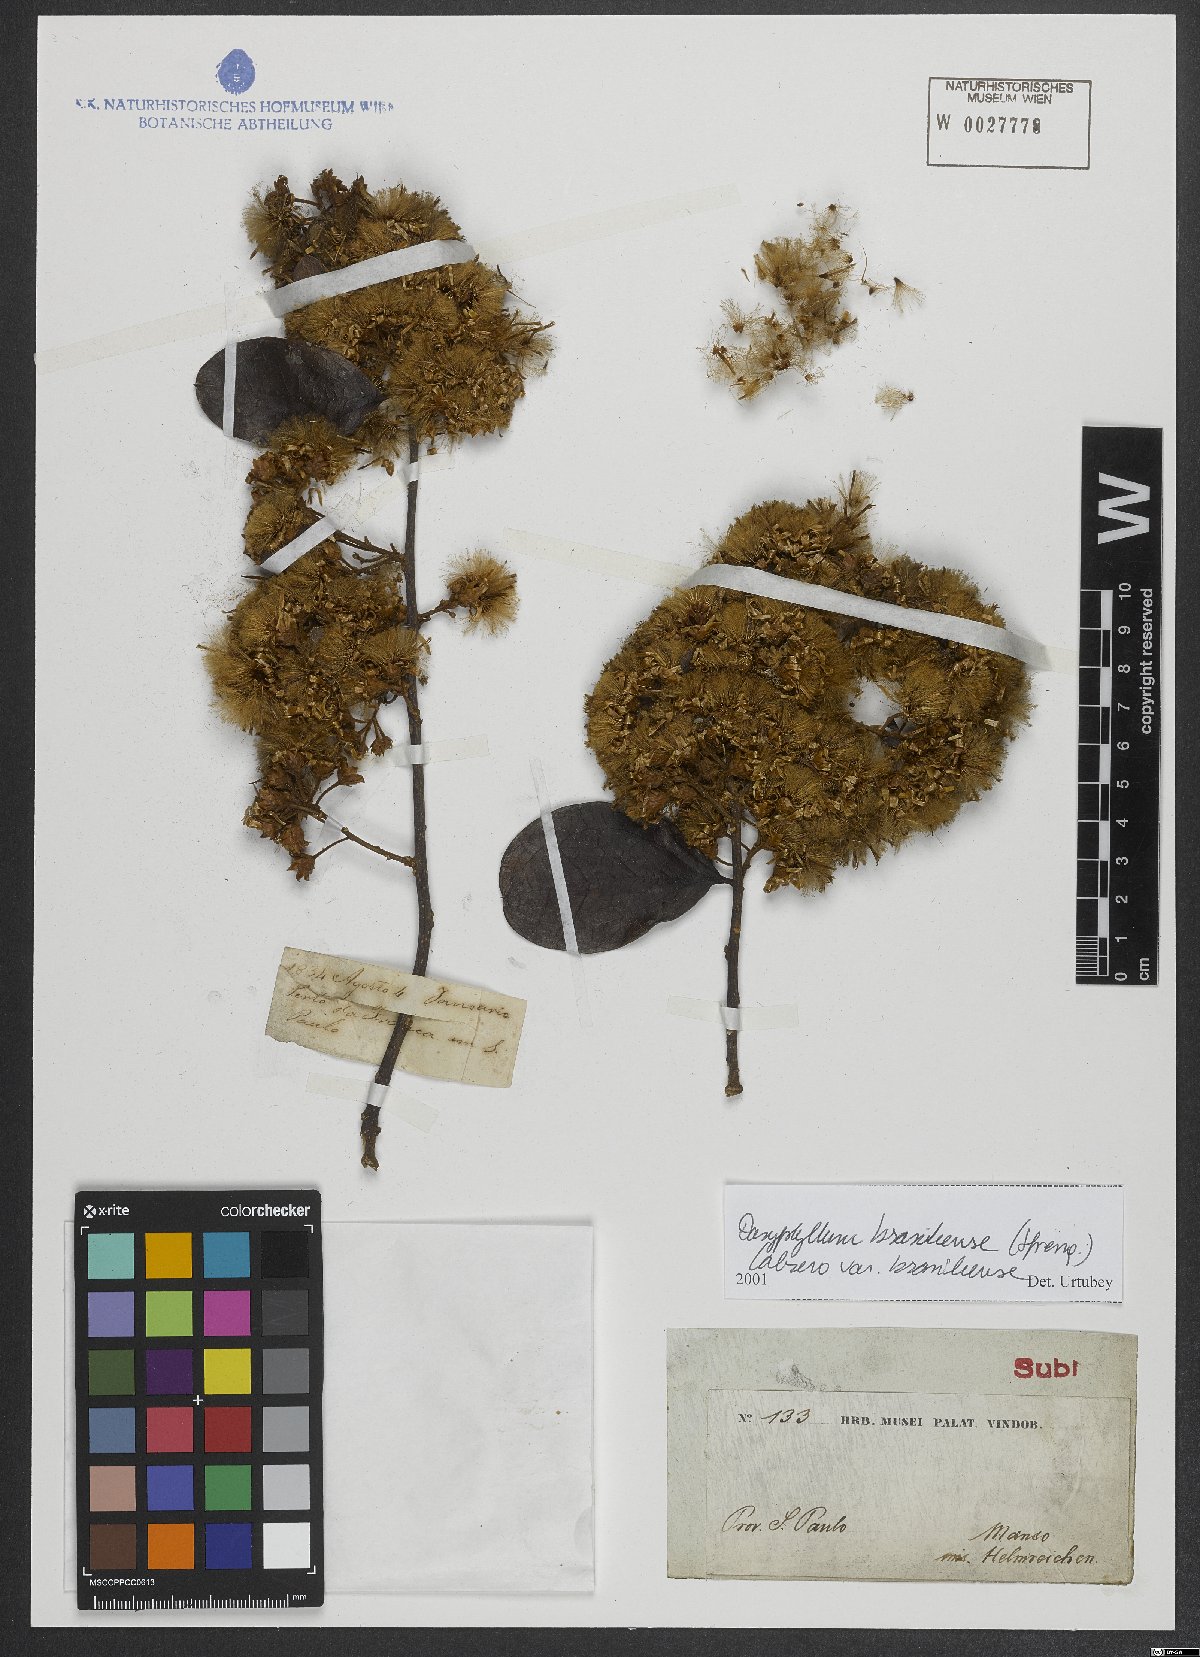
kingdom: Plantae
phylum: Tracheophyta
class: Magnoliopsida
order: Asterales
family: Asteraceae
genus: Dasyphyllum
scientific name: Dasyphyllum brasiliense
